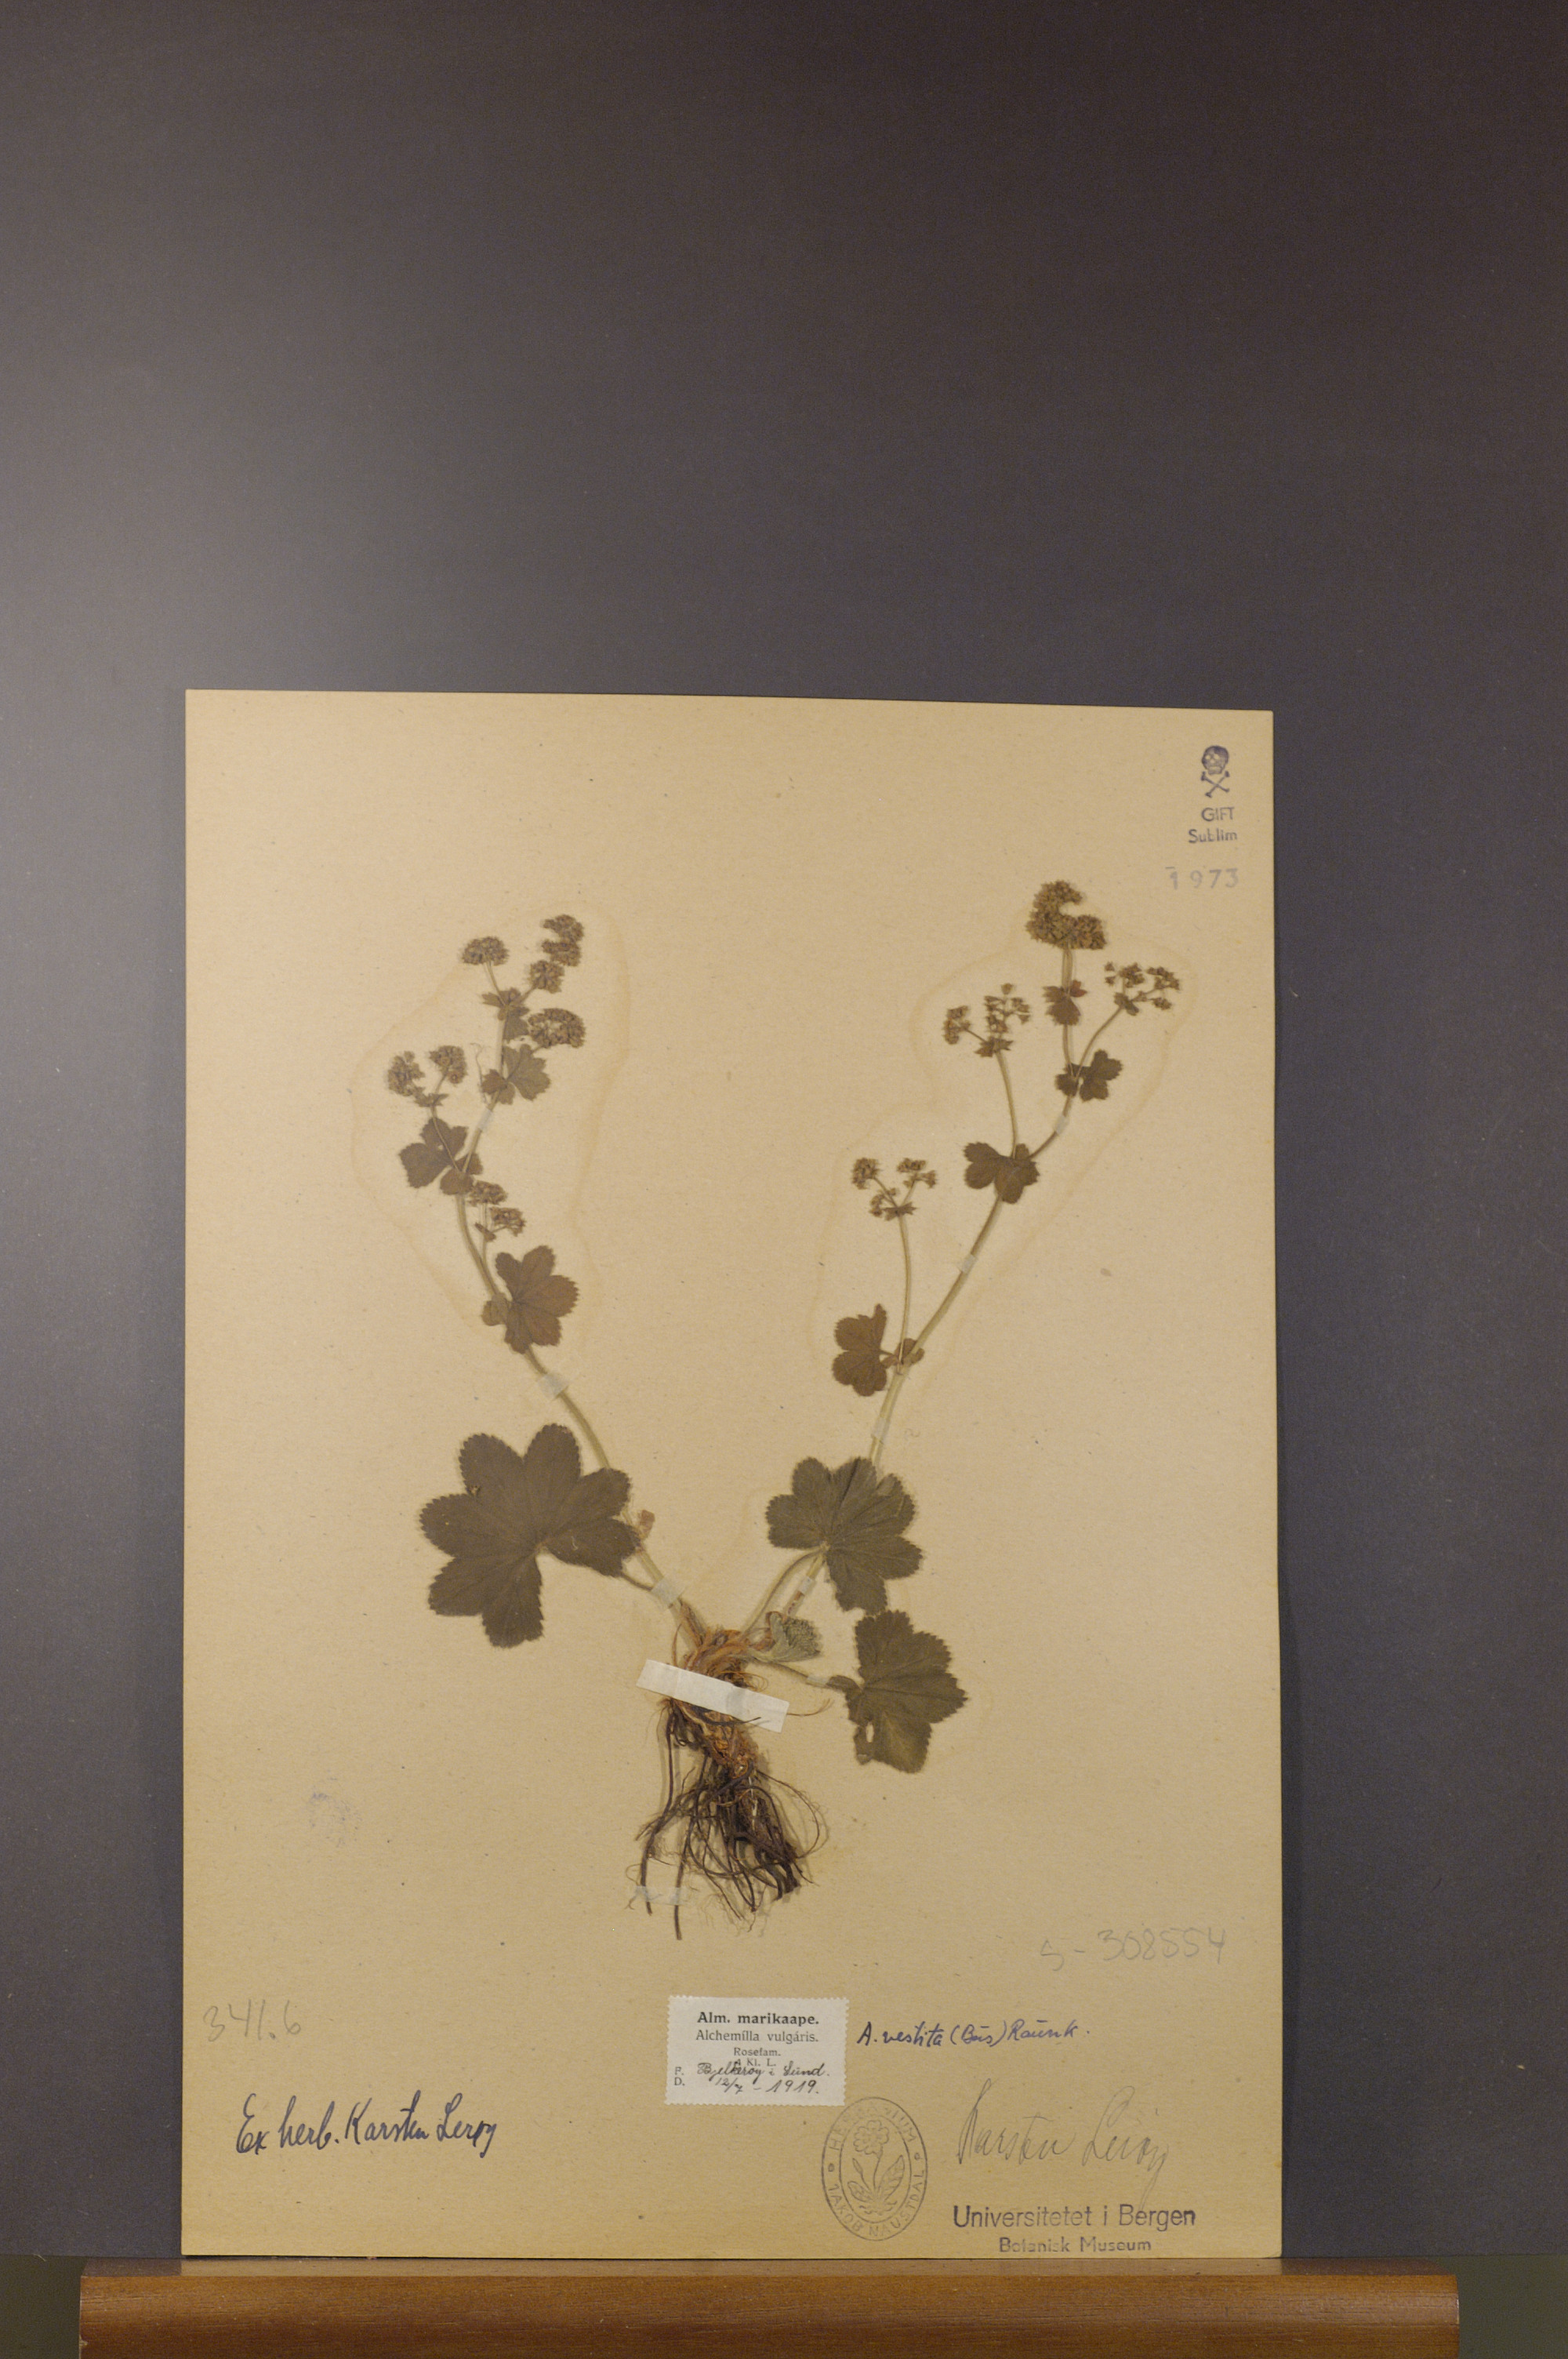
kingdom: Plantae
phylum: Tracheophyta
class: Magnoliopsida
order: Rosales
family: Rosaceae
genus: Alchemilla
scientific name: Alchemilla filicaulis
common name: Hairy lady's-mantle
